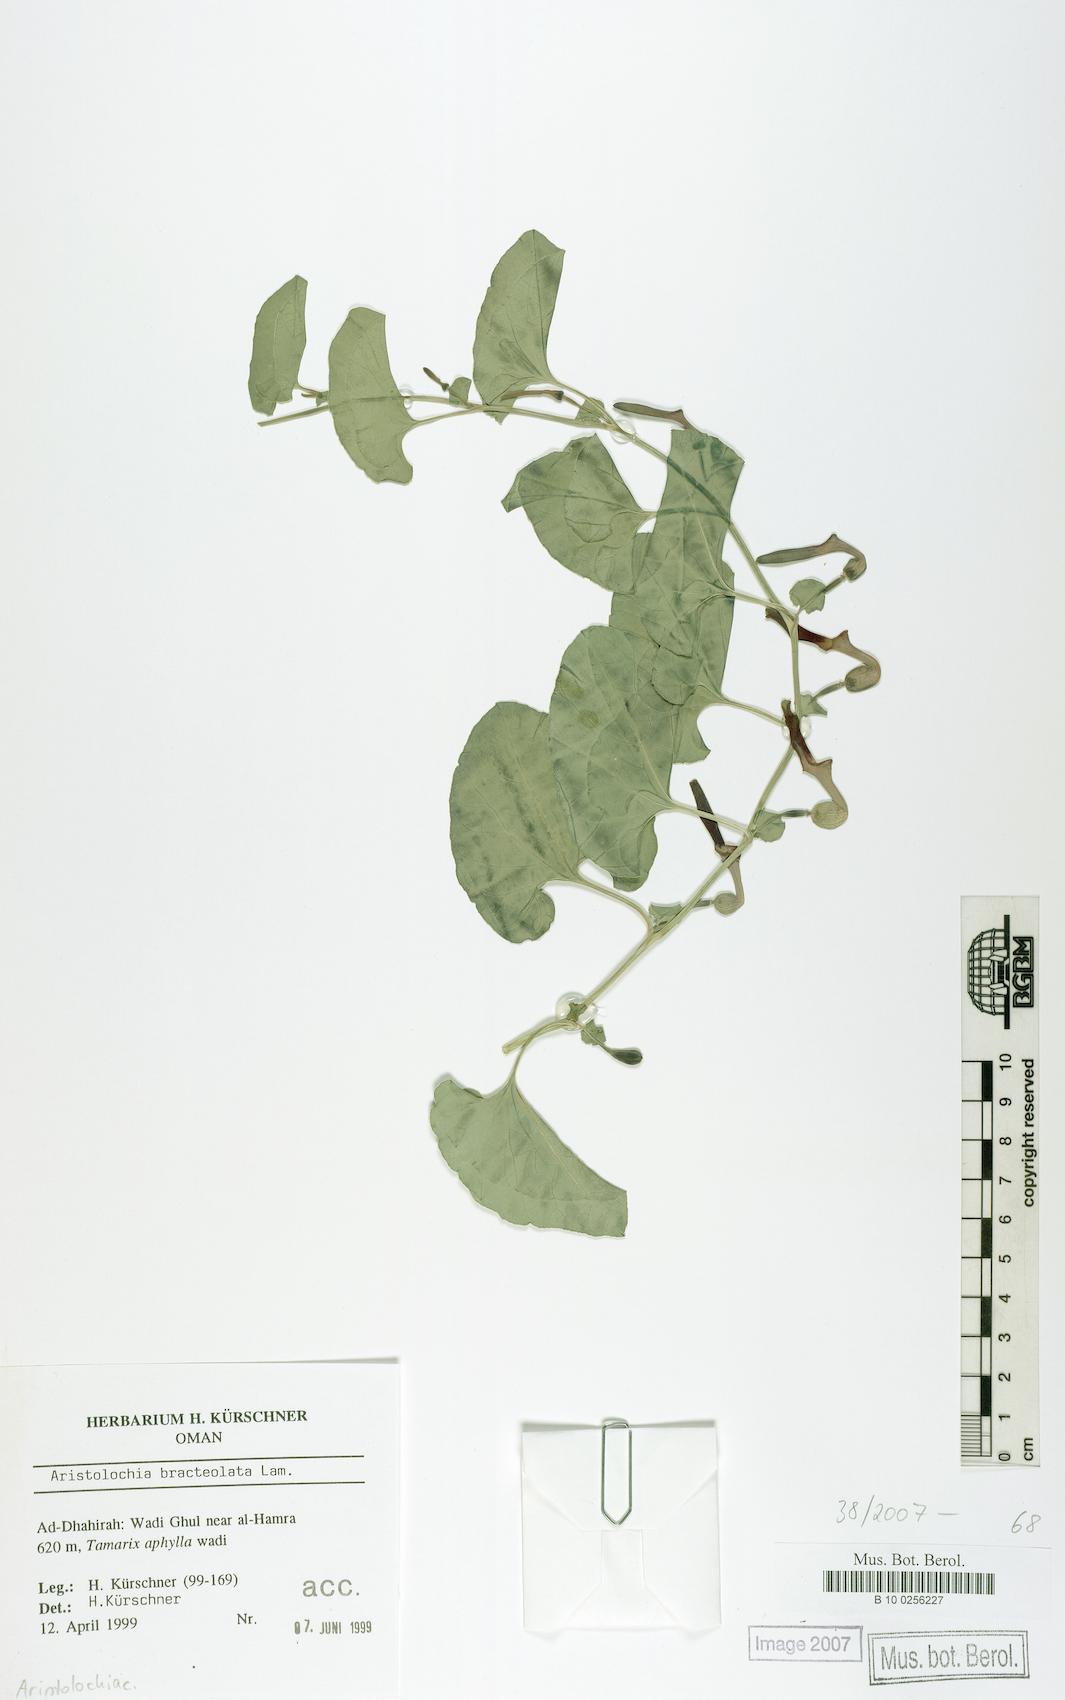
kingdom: Plantae
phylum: Tracheophyta
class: Magnoliopsida
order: Piperales
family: Aristolochiaceae
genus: Aristolochia
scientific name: Aristolochia bracteolata
